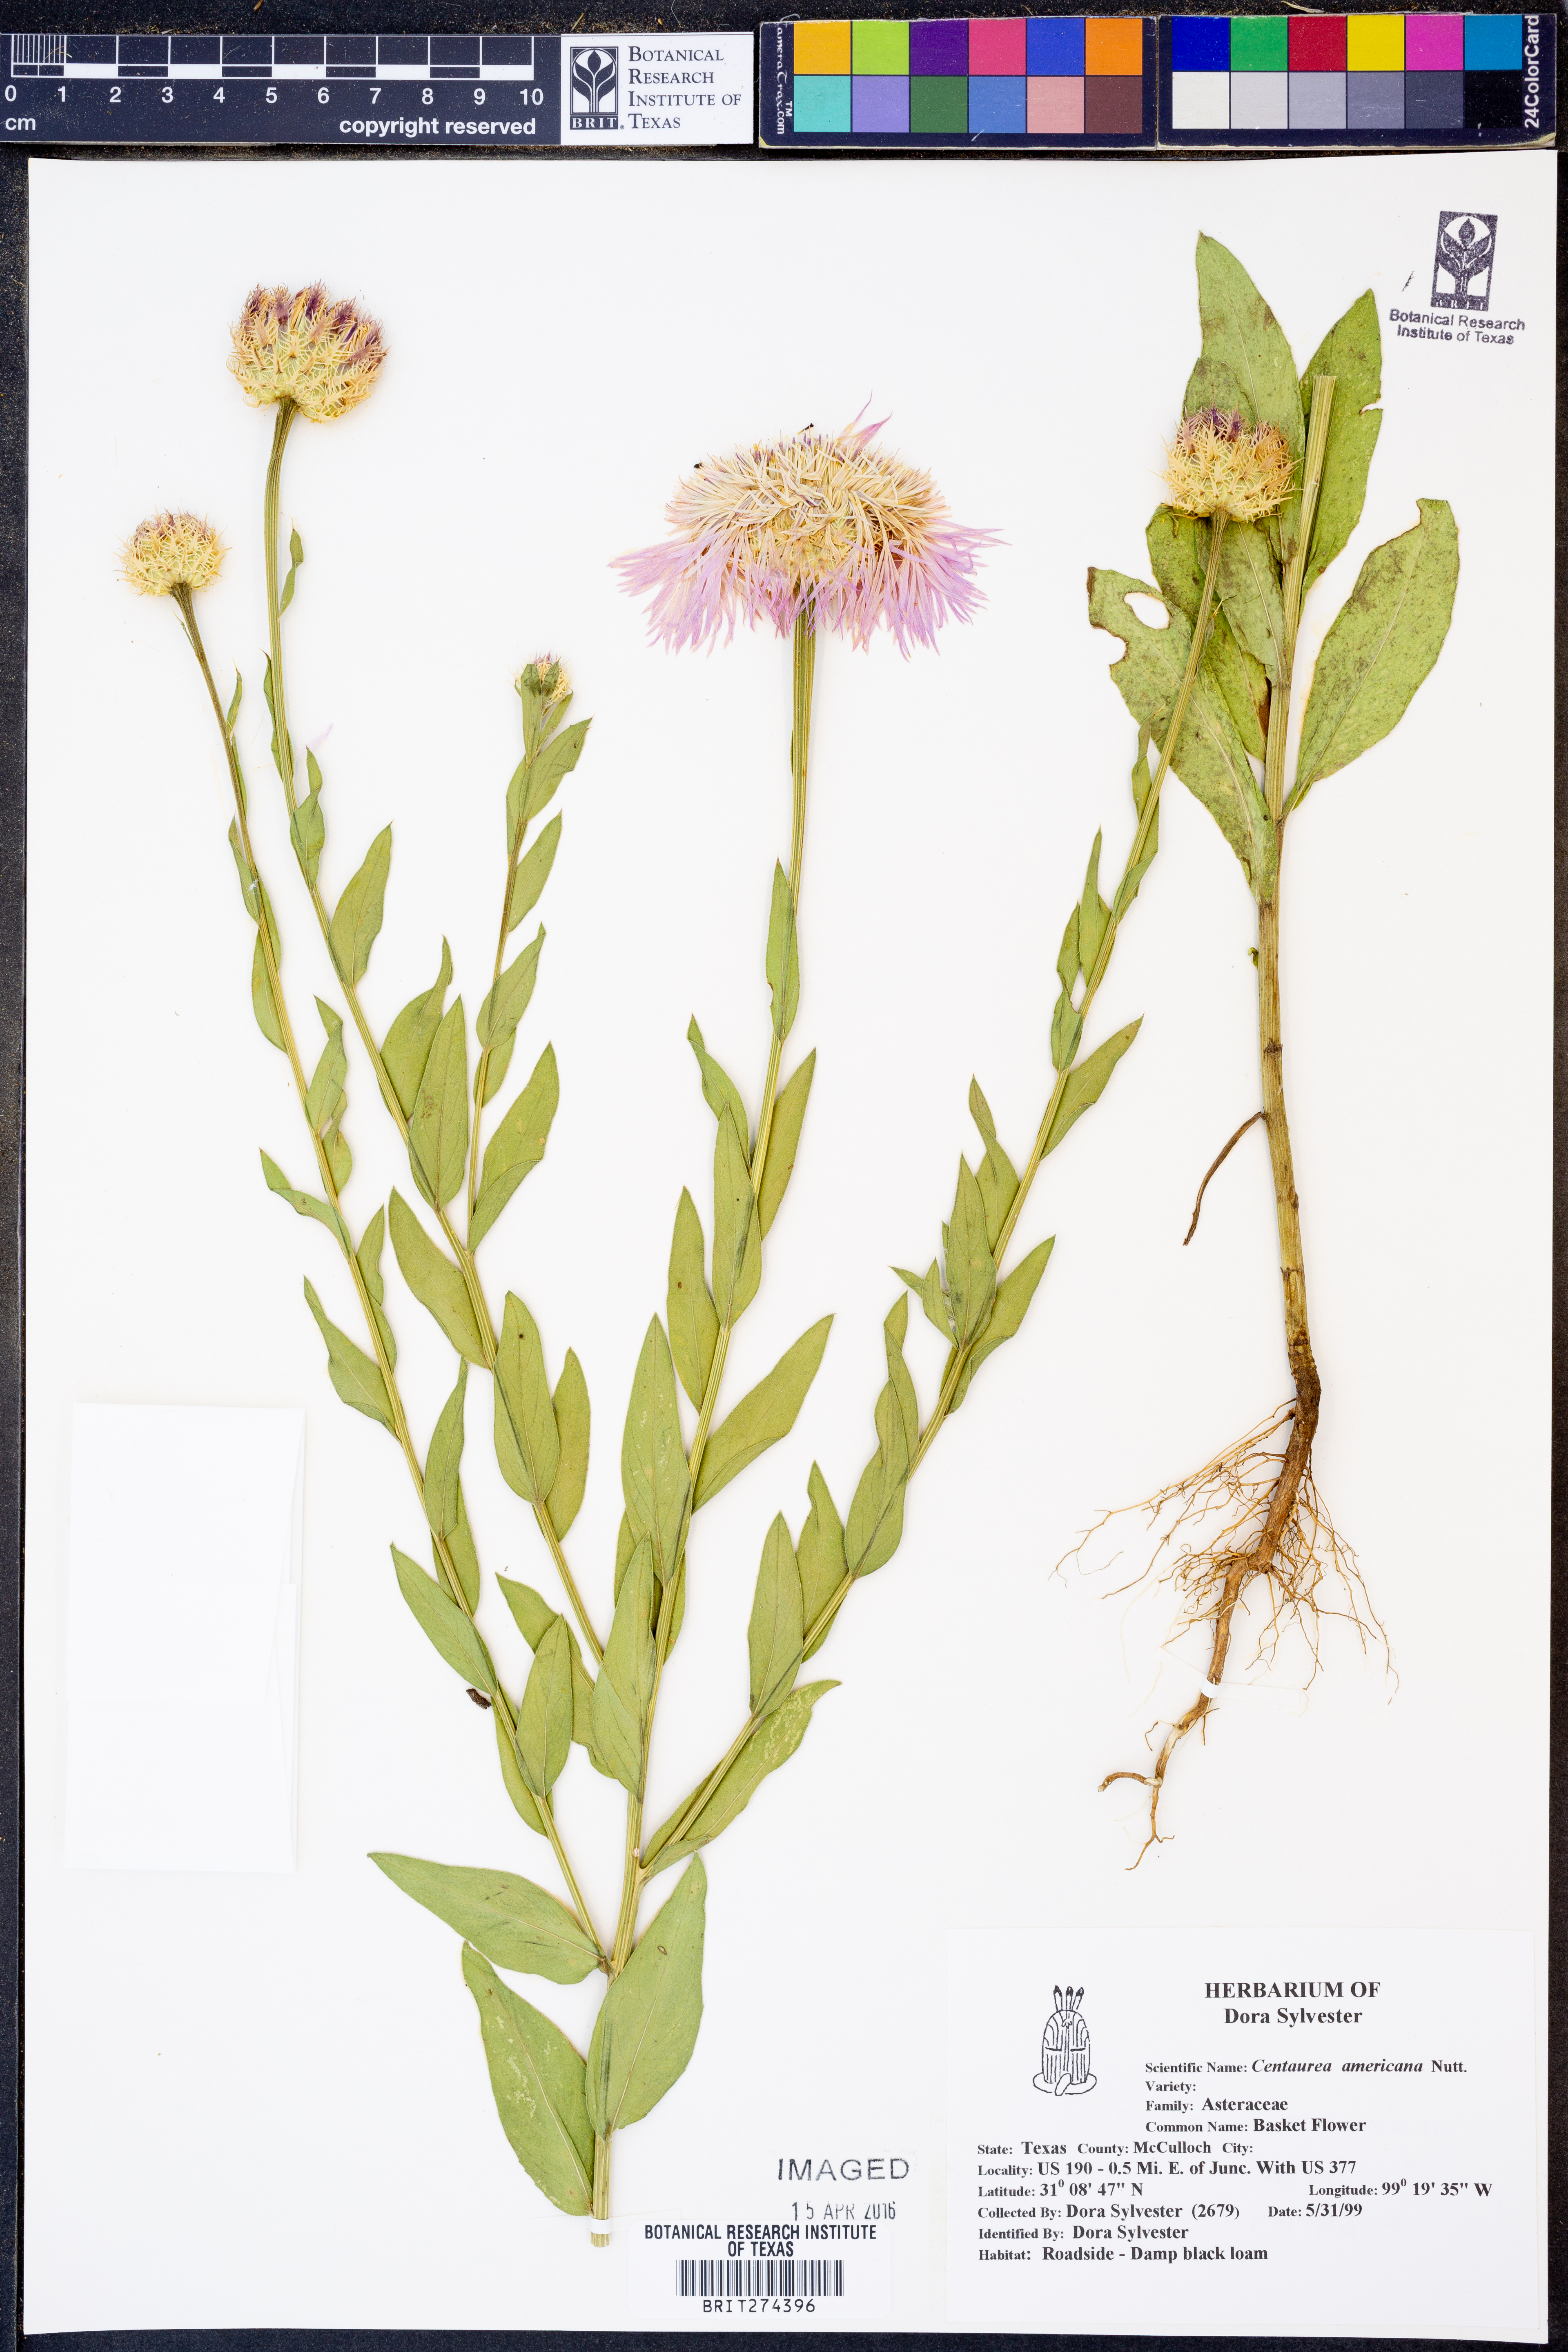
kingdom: Plantae
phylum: Tracheophyta
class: Magnoliopsida
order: Asterales
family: Asteraceae
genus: Plectocephalus
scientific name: Plectocephalus americanus
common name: American basket-flower
